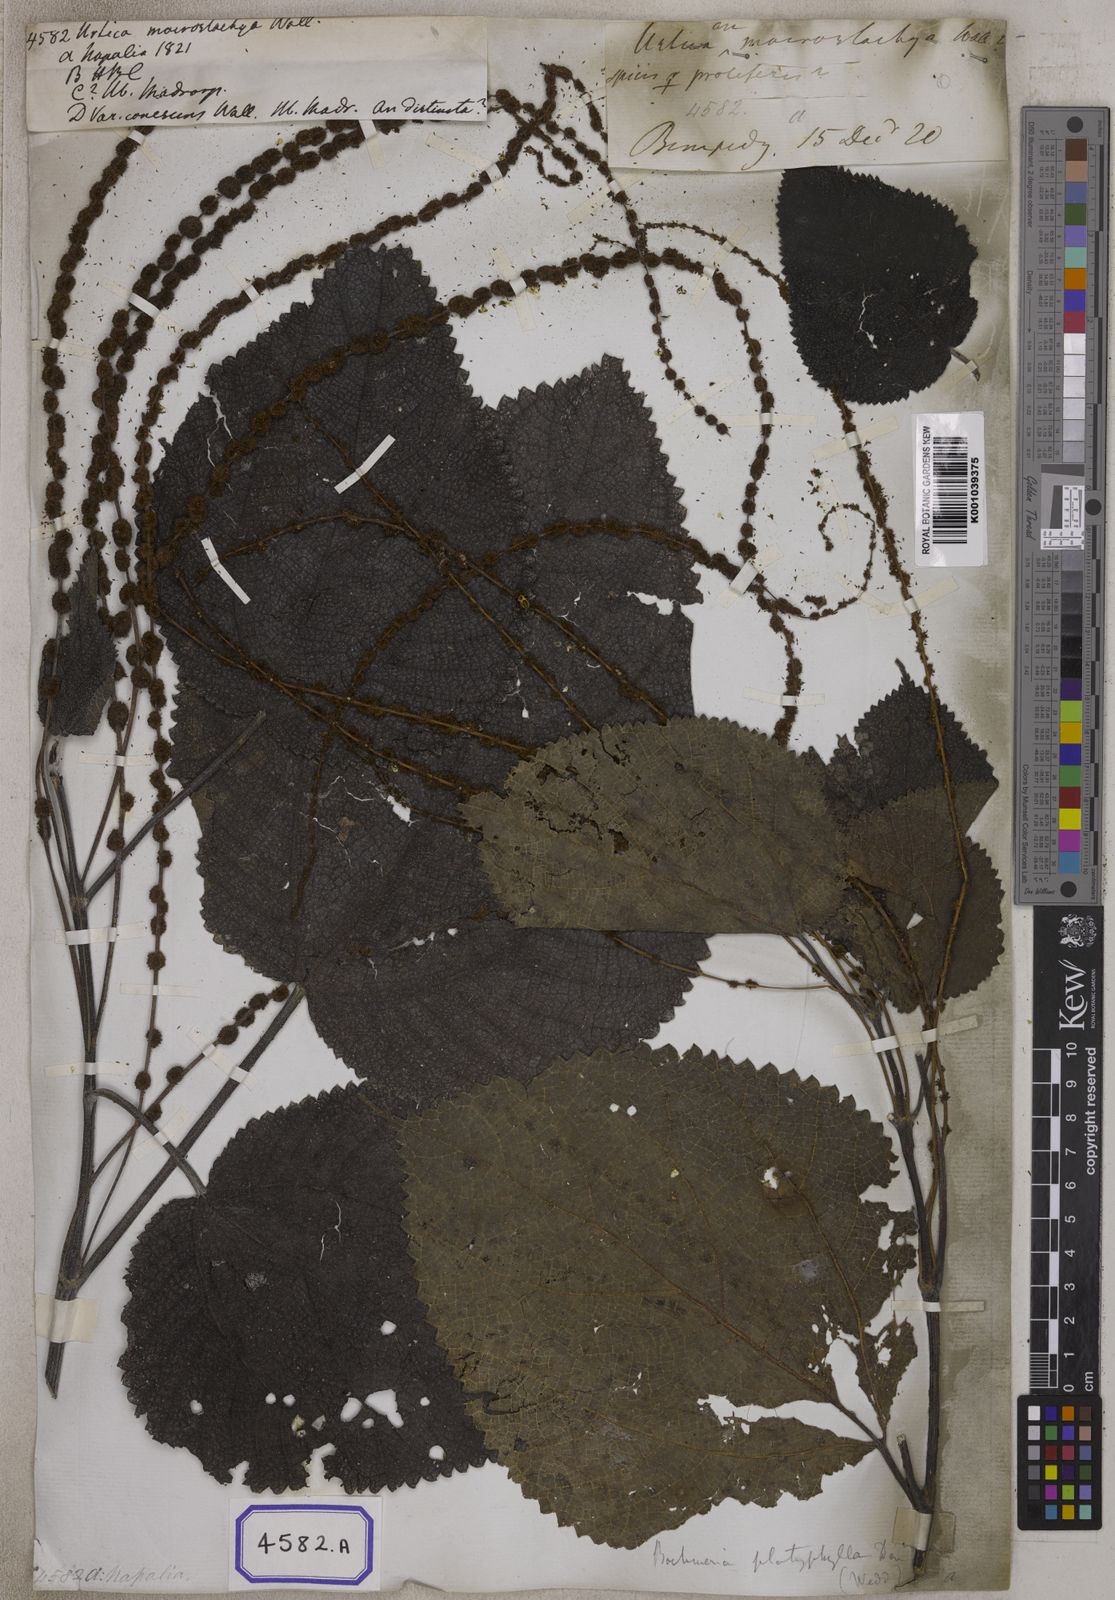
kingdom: Plantae
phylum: Tracheophyta
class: Magnoliopsida
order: Rosales
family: Urticaceae
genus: Boehmeria
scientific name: Boehmeria virgata
